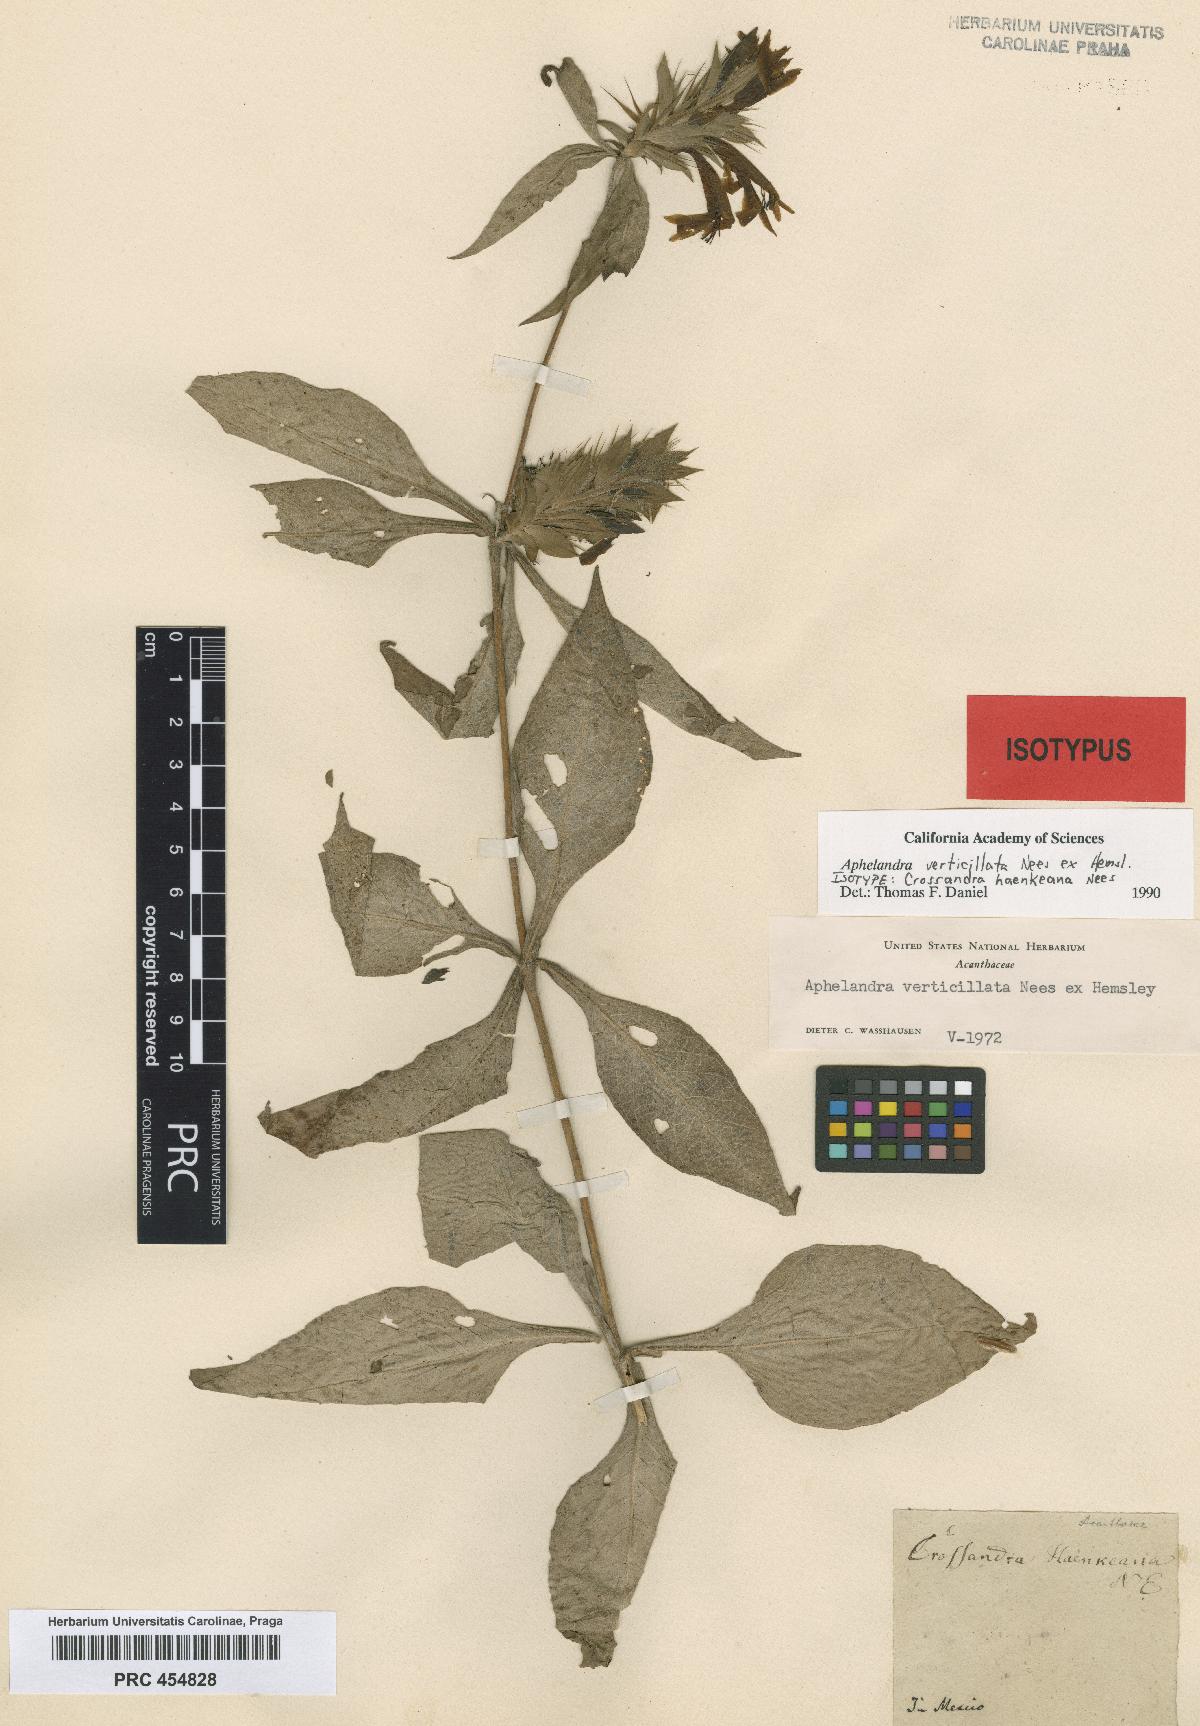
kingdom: Plantae
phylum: Tracheophyta
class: Magnoliopsida
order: Lamiales
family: Acanthaceae
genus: Holographis
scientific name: Holographis haenkeana
